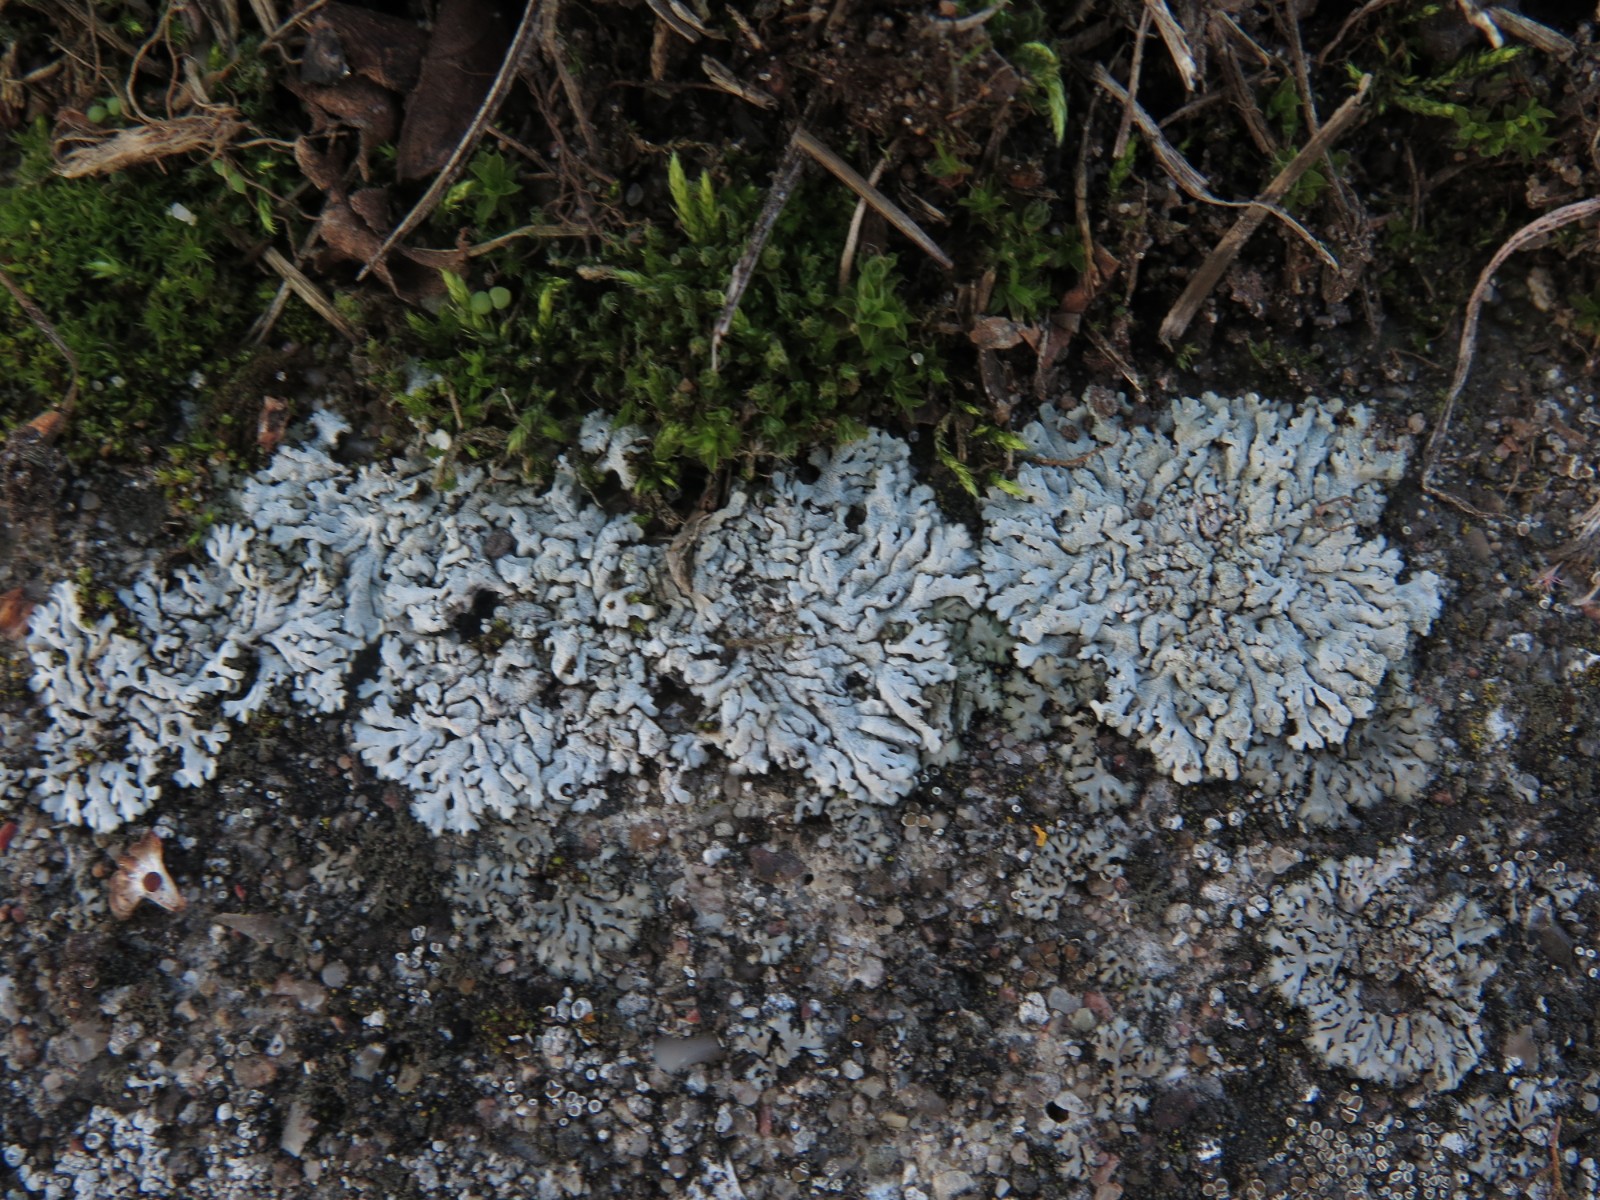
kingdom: Fungi
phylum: Ascomycota
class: Lecanoromycetes
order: Caliciales
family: Physciaceae
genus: Physcia
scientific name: Physcia caesia
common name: blågrå rosetlav
